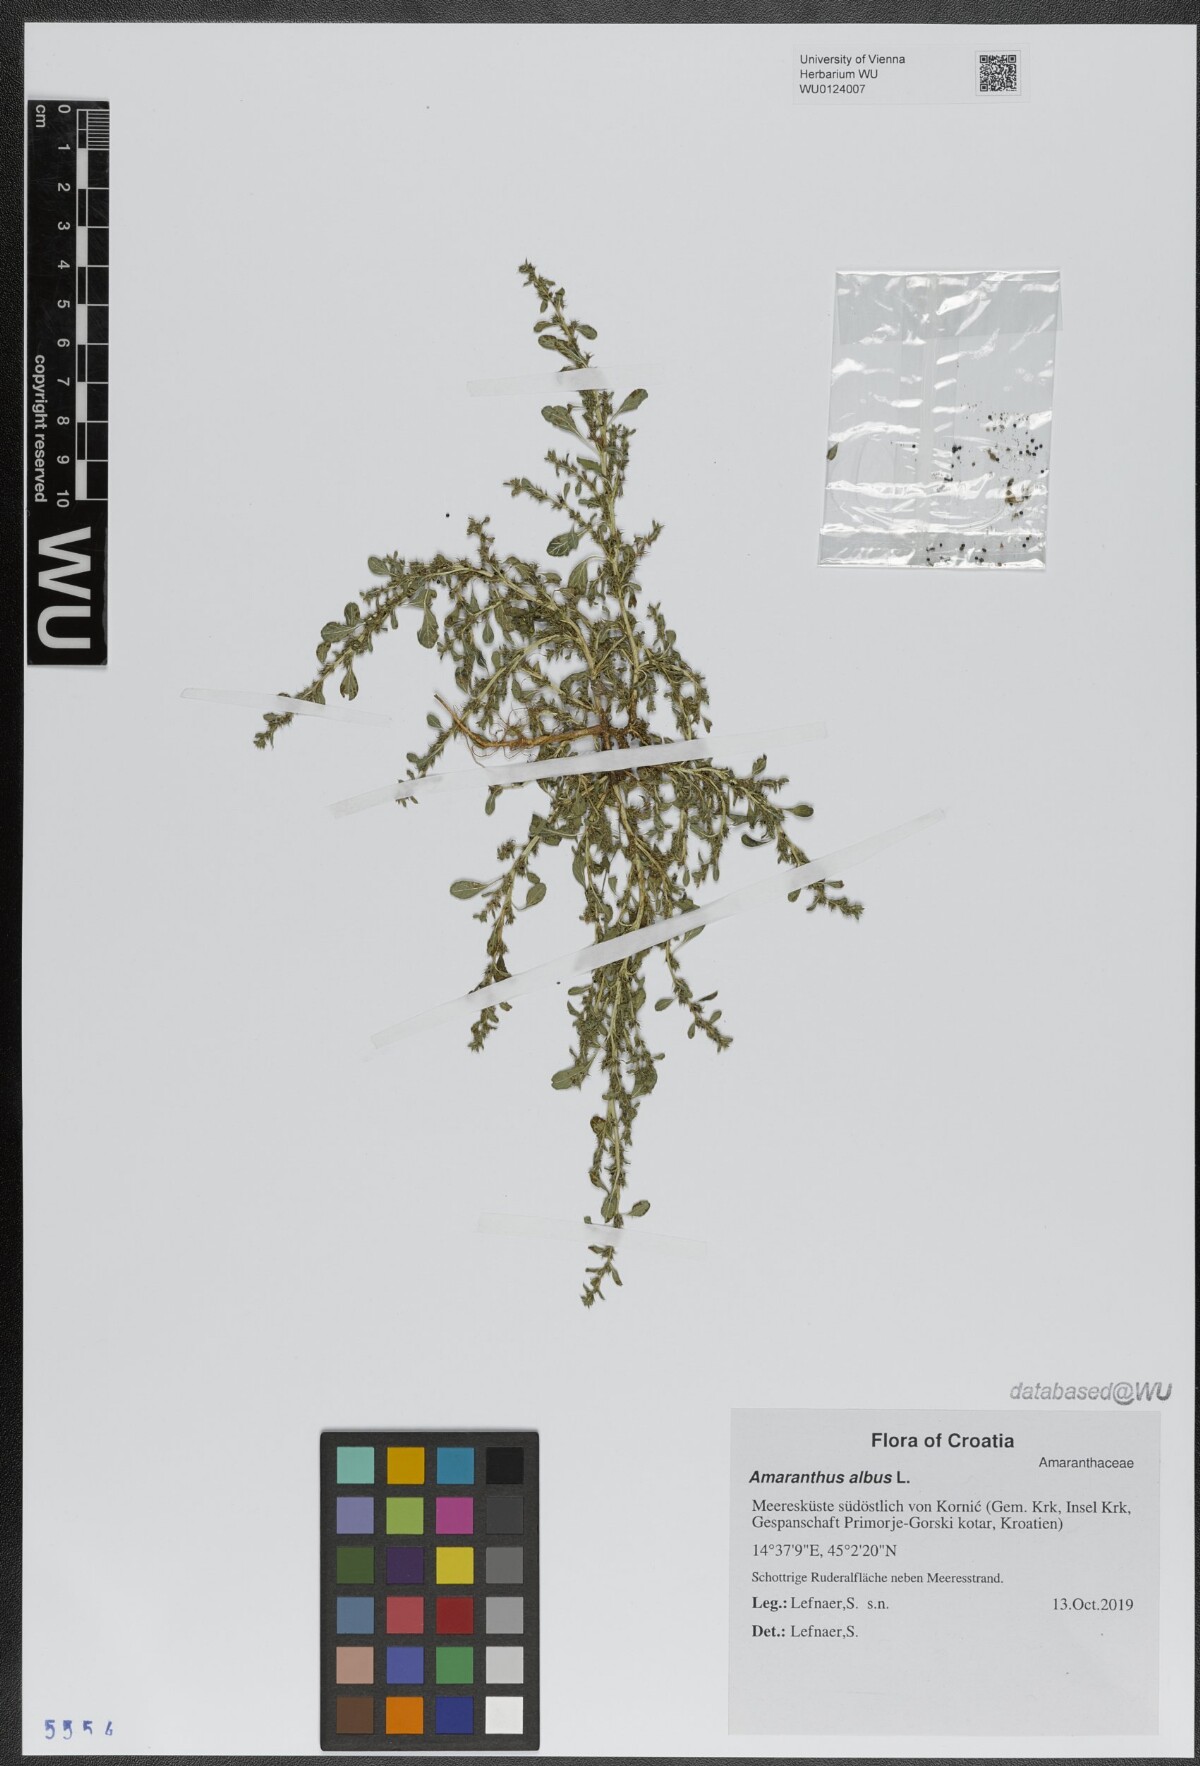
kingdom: Plantae
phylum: Tracheophyta
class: Magnoliopsida
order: Caryophyllales
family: Amaranthaceae
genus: Amaranthus
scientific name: Amaranthus albus
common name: White pigweed
